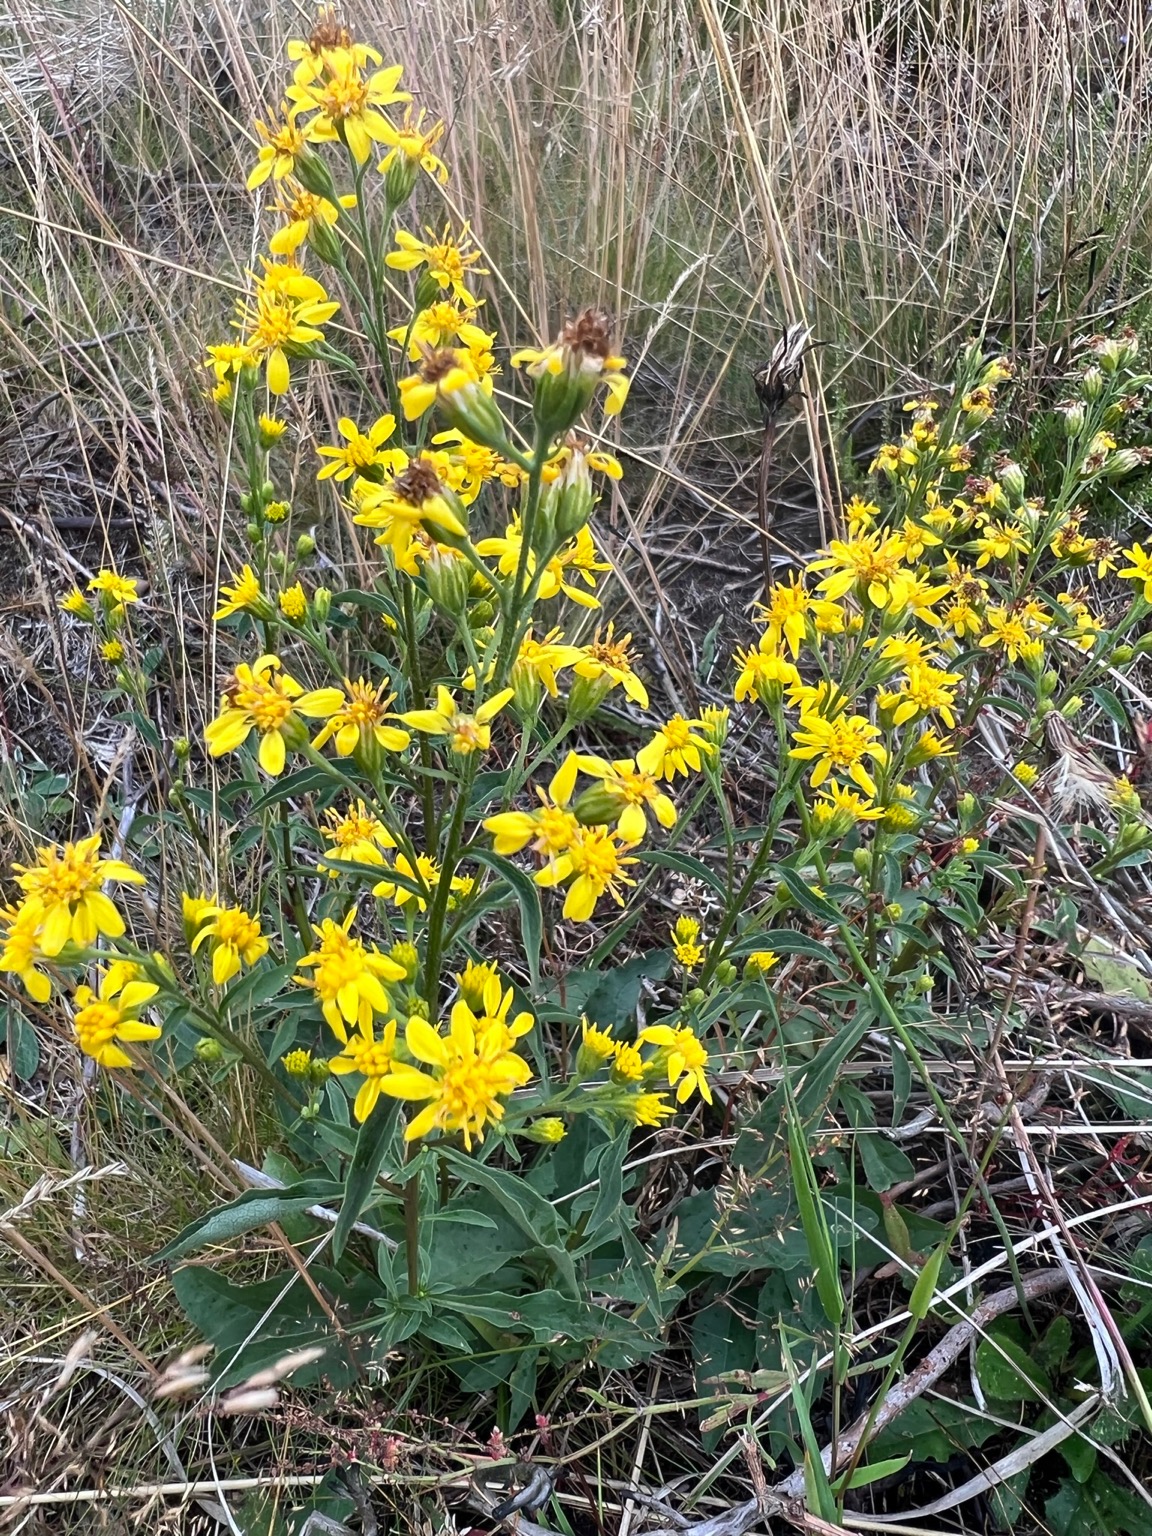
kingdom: Plantae
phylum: Tracheophyta
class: Magnoliopsida
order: Asterales
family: Asteraceae
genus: Solidago
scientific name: Solidago virgaurea
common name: Almindelig gyldenris
